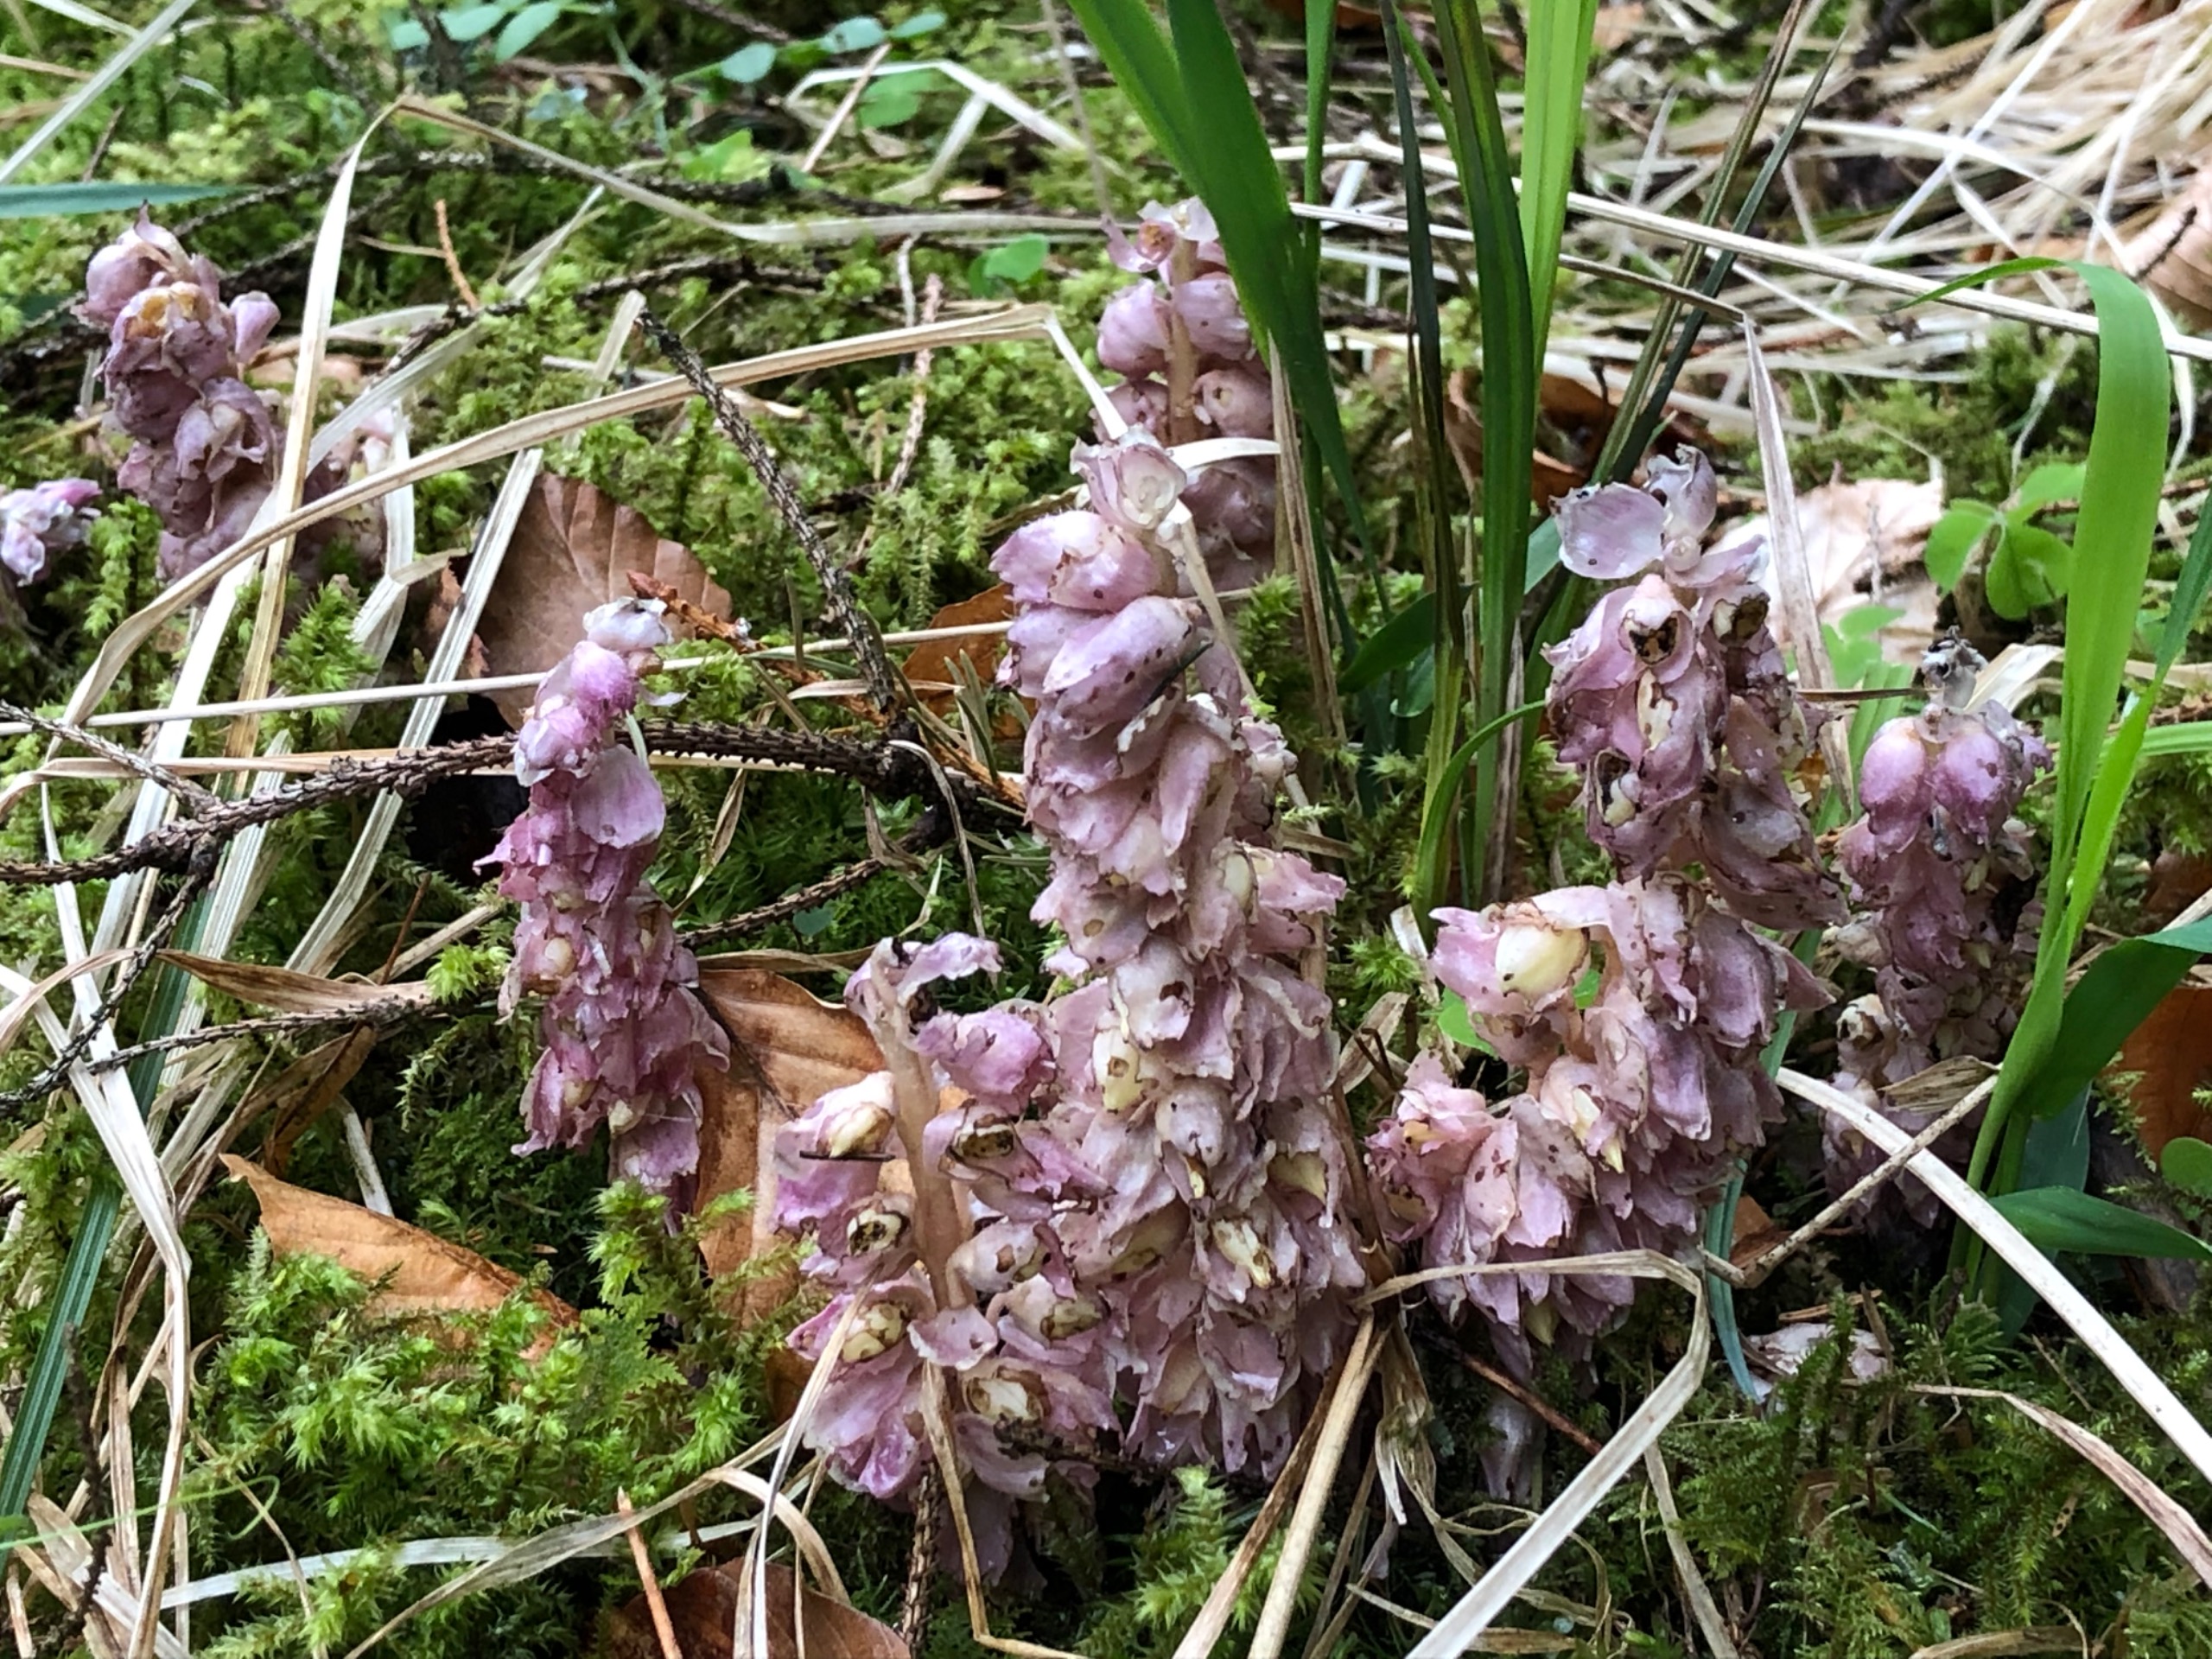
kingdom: Plantae
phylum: Tracheophyta
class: Magnoliopsida
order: Lamiales
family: Orobanchaceae
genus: Lathraea
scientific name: Lathraea squamaria
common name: Skælrod
